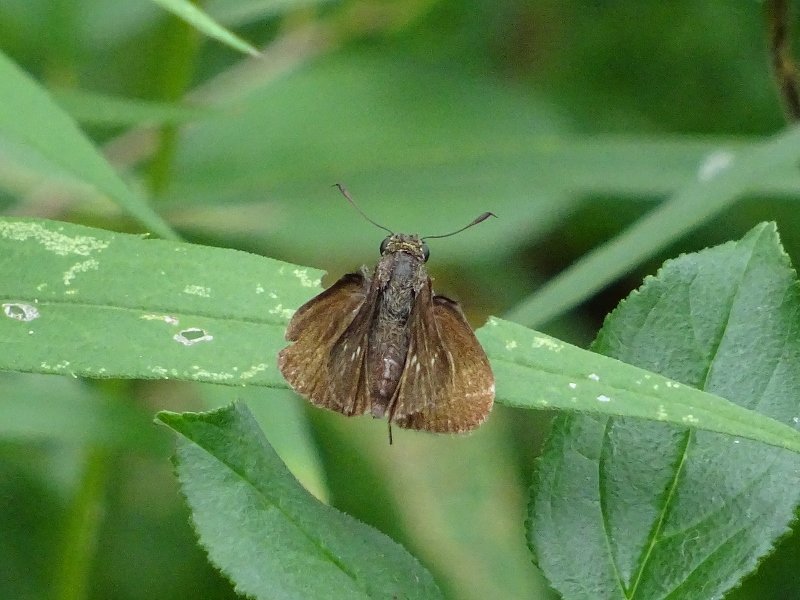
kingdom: Animalia
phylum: Arthropoda
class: Insecta
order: Lepidoptera
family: Hesperiidae
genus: Euphyes
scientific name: Euphyes vestris
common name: Dun Skipper
